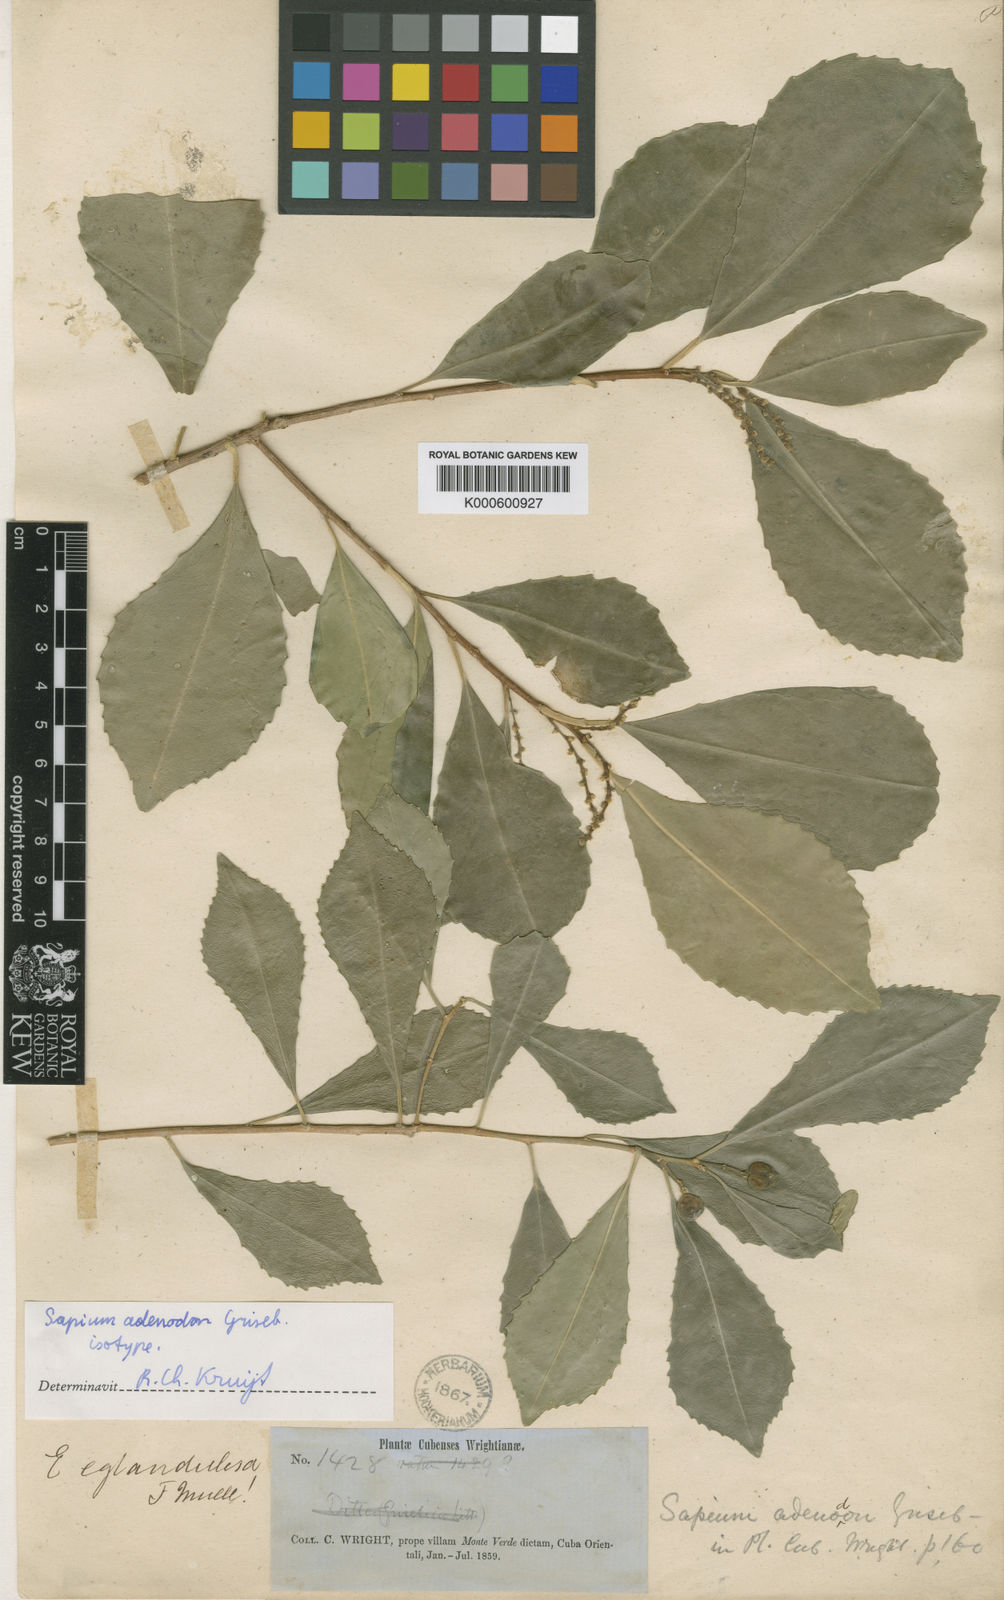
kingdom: Plantae
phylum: Tracheophyta
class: Magnoliopsida
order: Malpighiales
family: Euphorbiaceae
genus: Sapium
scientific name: Sapium adenodon
